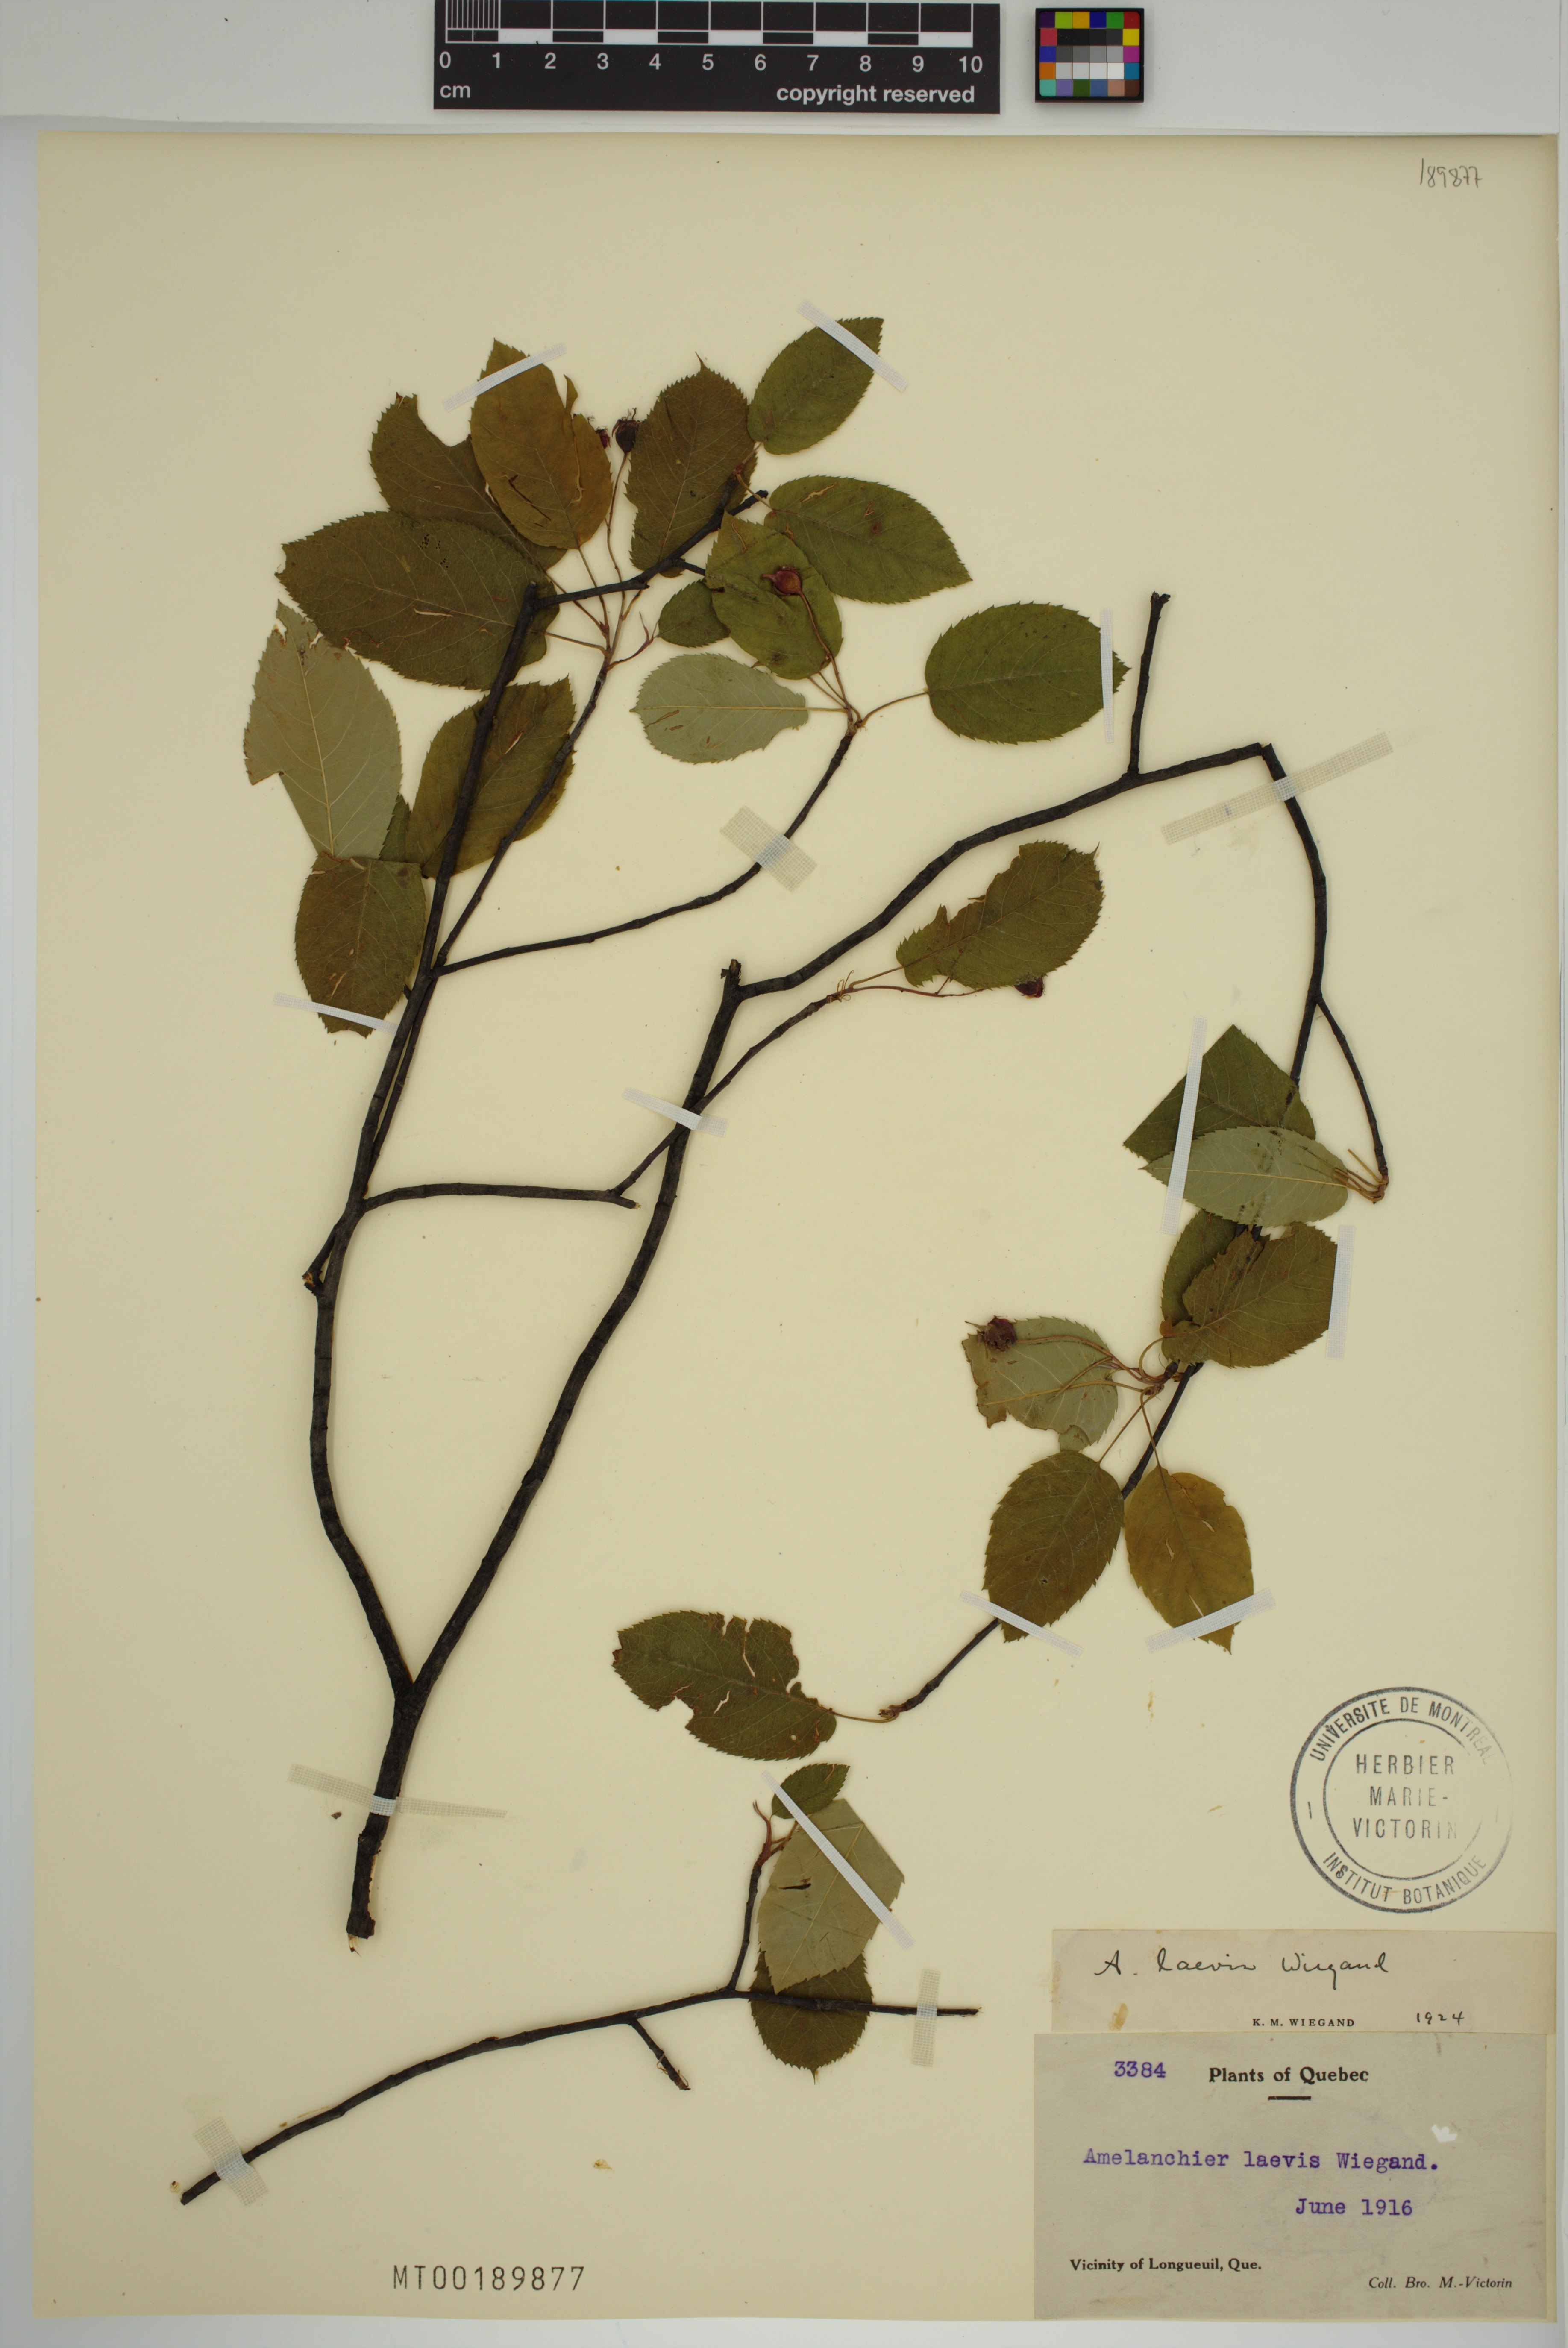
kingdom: Plantae
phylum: Tracheophyta
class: Magnoliopsida
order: Rosales
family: Rosaceae
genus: Amelanchier
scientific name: Amelanchier laevis
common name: Allegheny serviceberry
